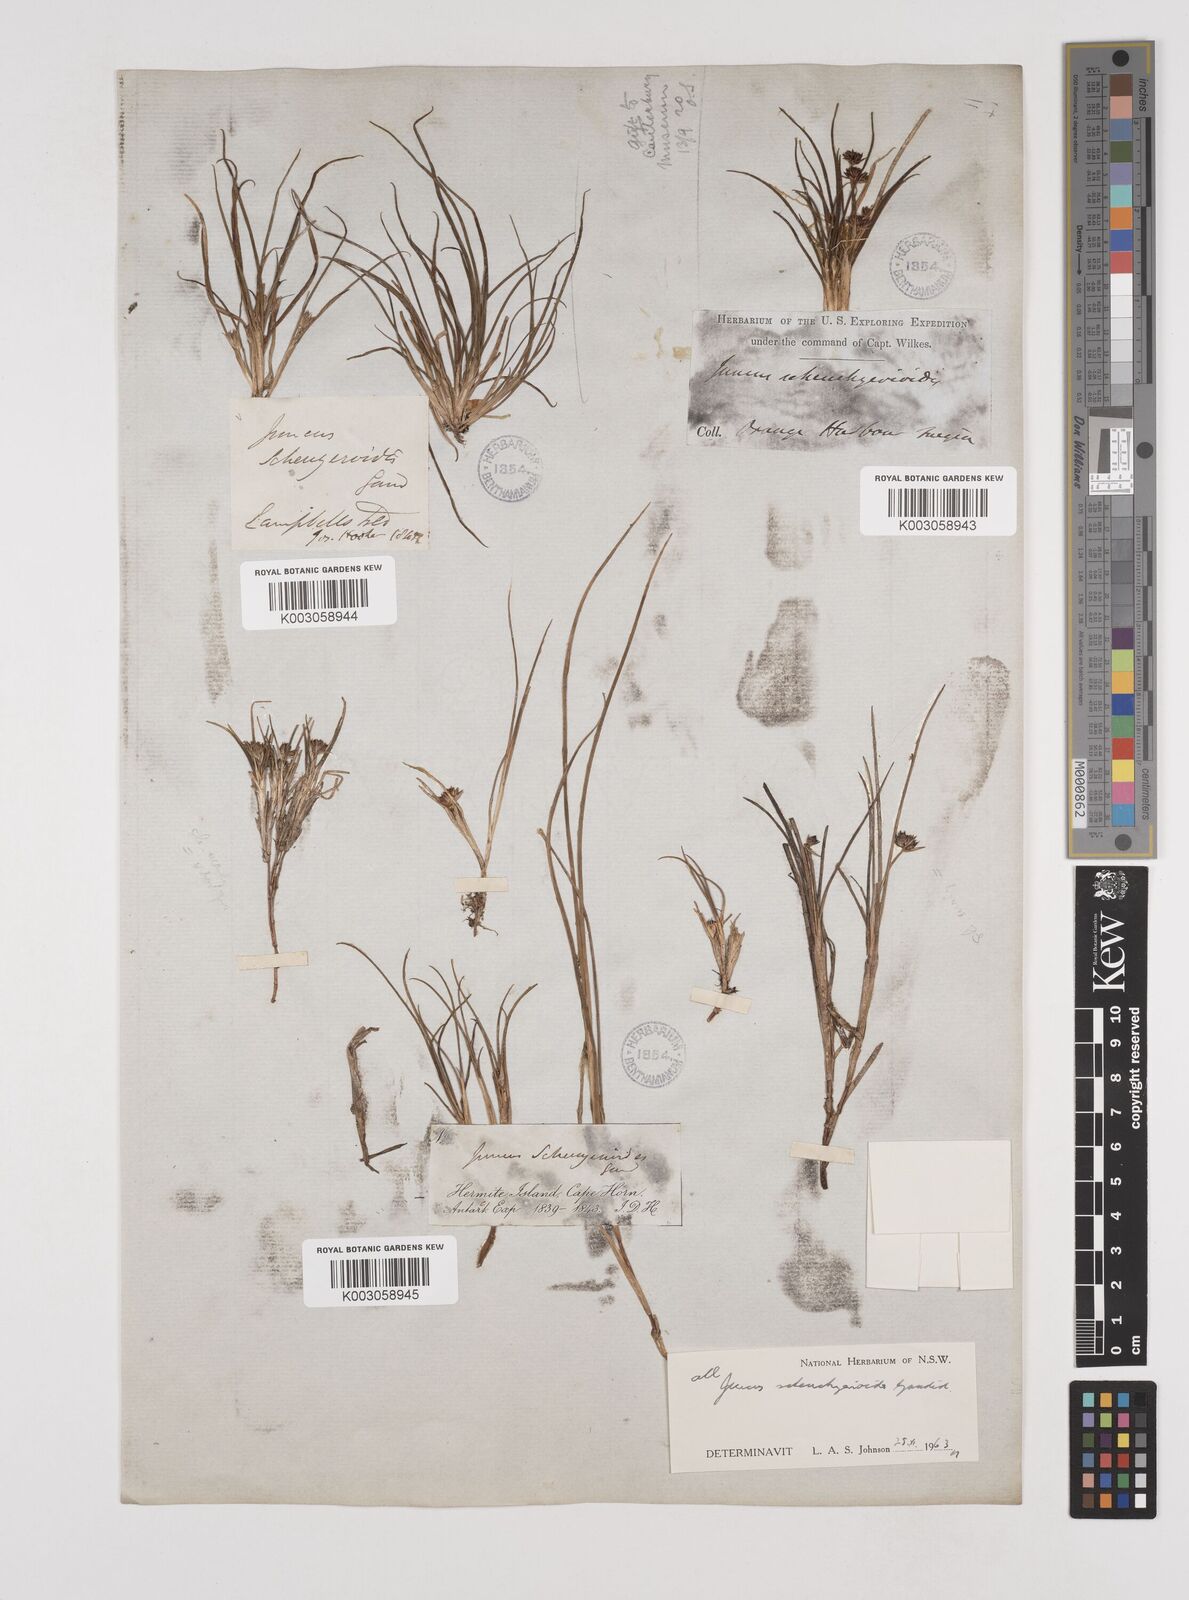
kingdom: Plantae
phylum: Tracheophyta
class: Liliopsida
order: Poales
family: Juncaceae
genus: Juncus
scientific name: Juncus scheuchzerioides
